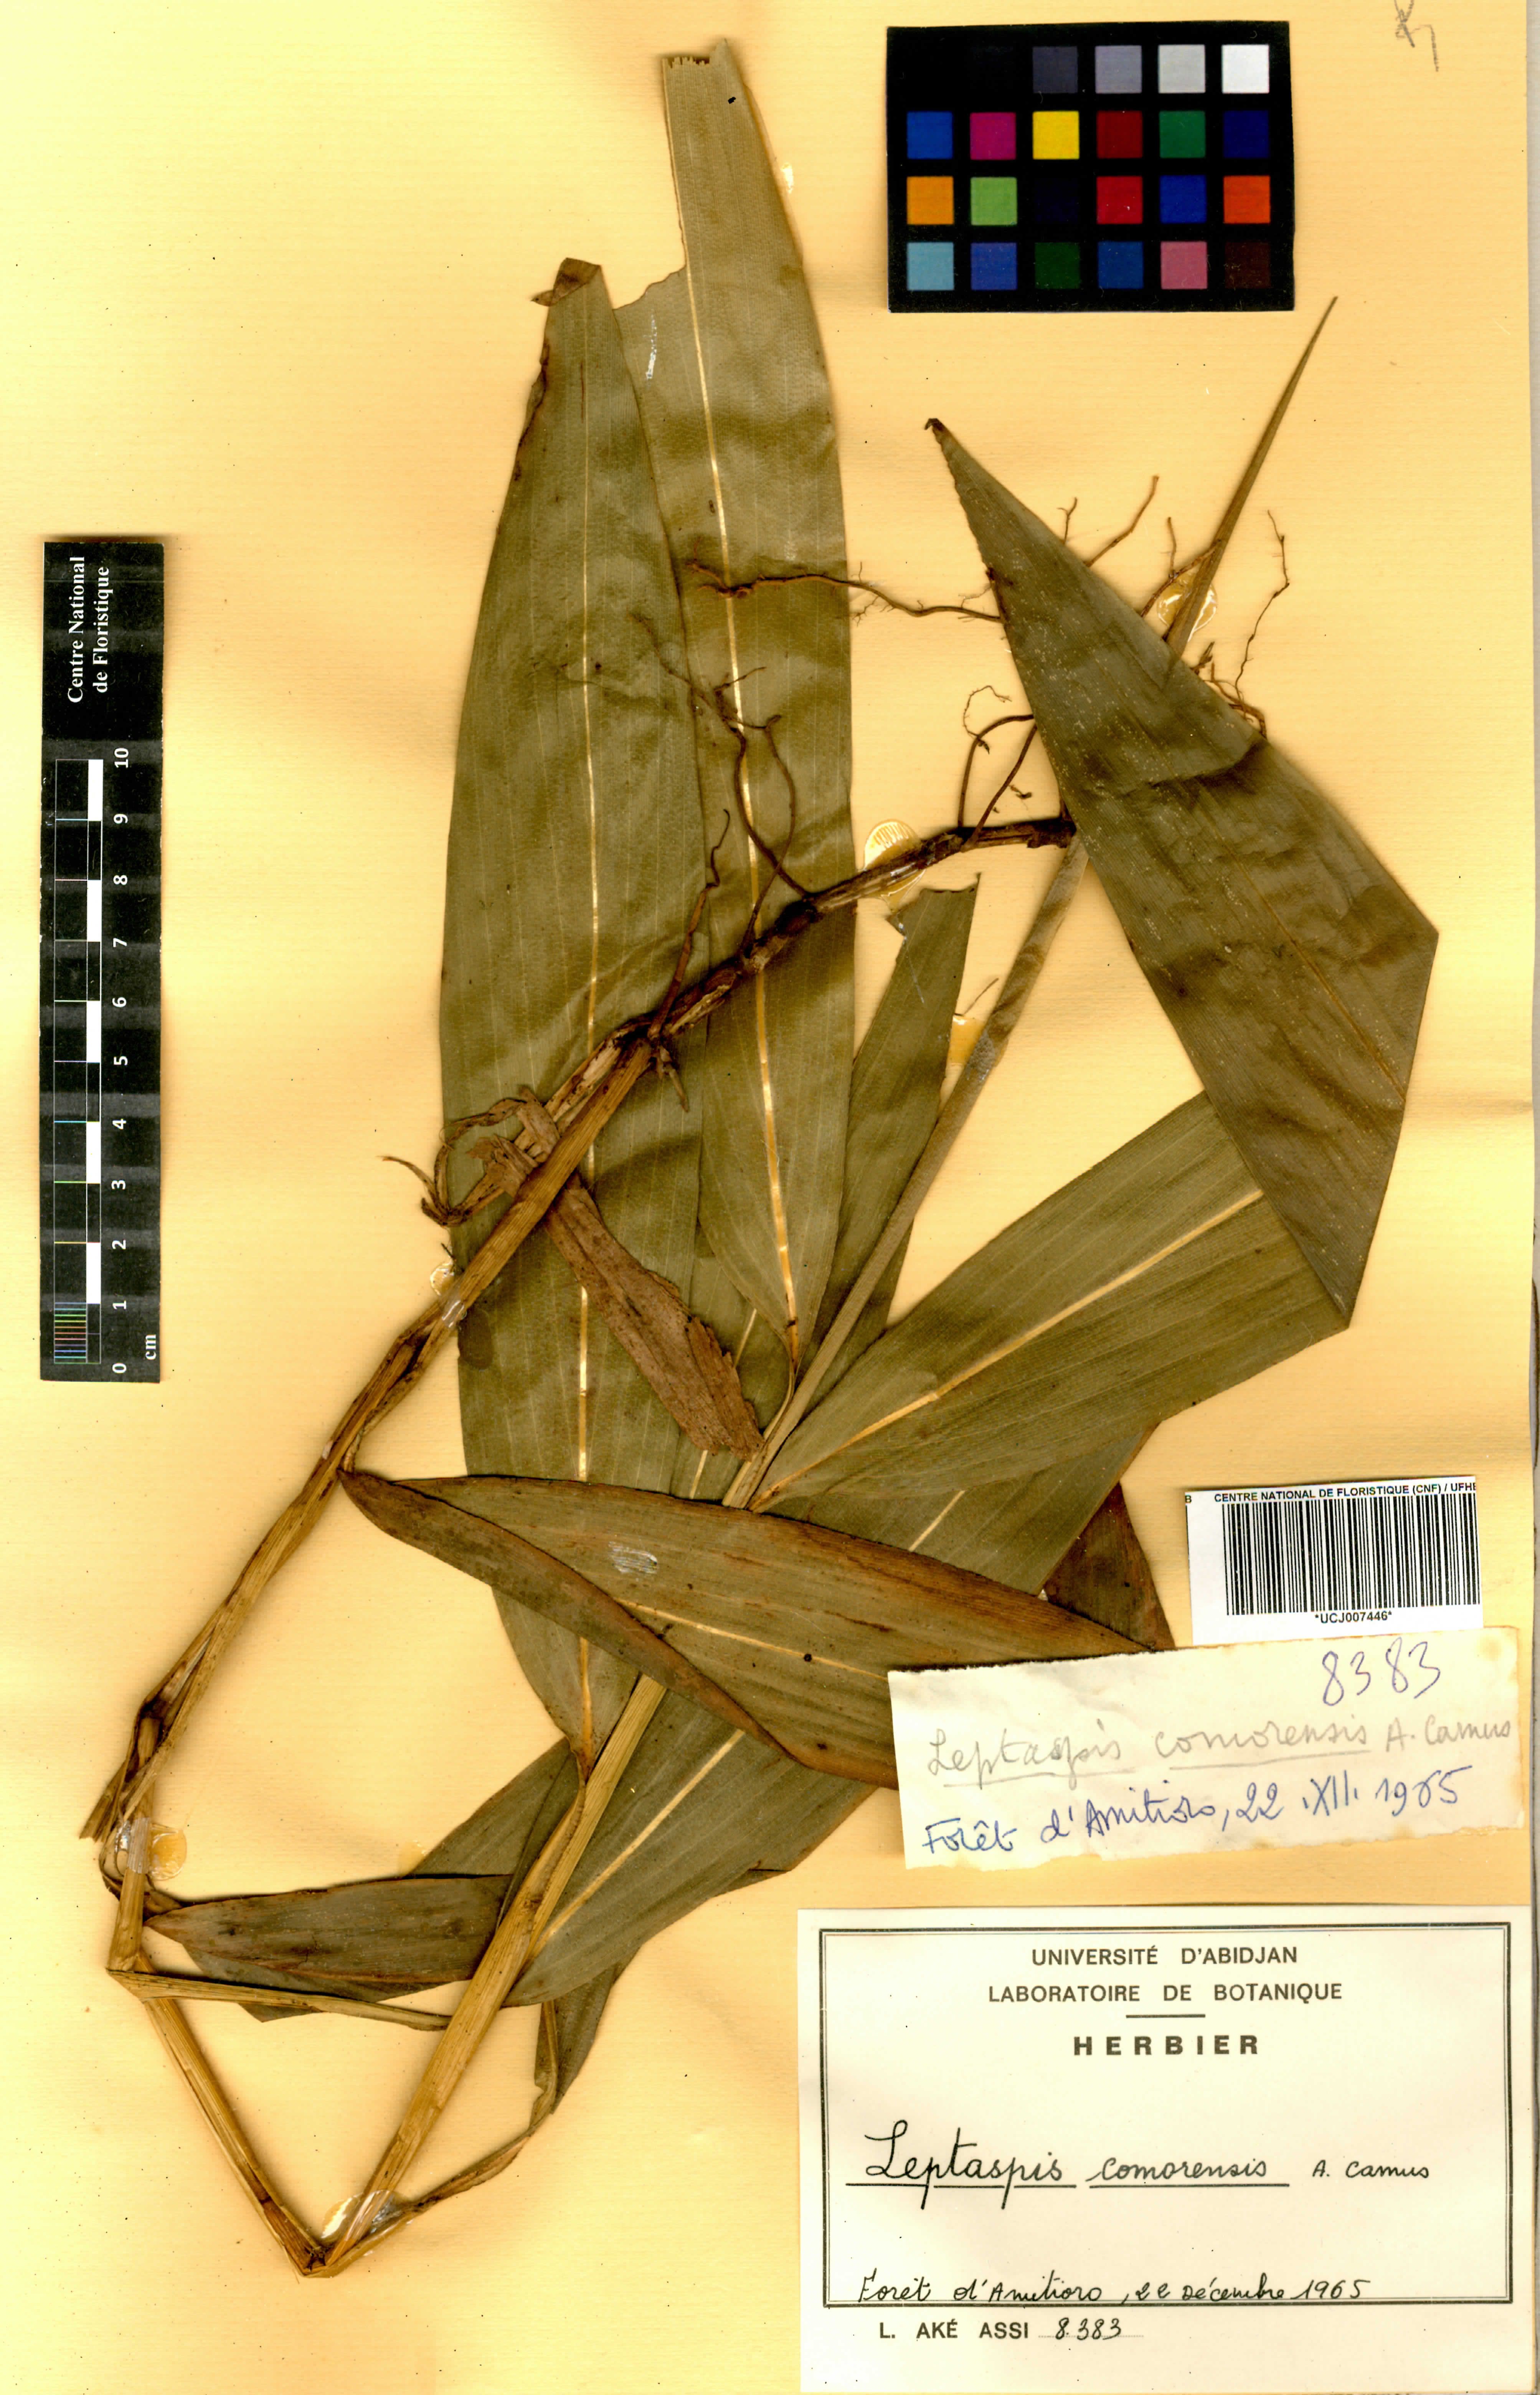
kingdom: Plantae
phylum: Tracheophyta
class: Liliopsida
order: Poales
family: Poaceae
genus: Leptaspis
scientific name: Leptaspis zeylanica
